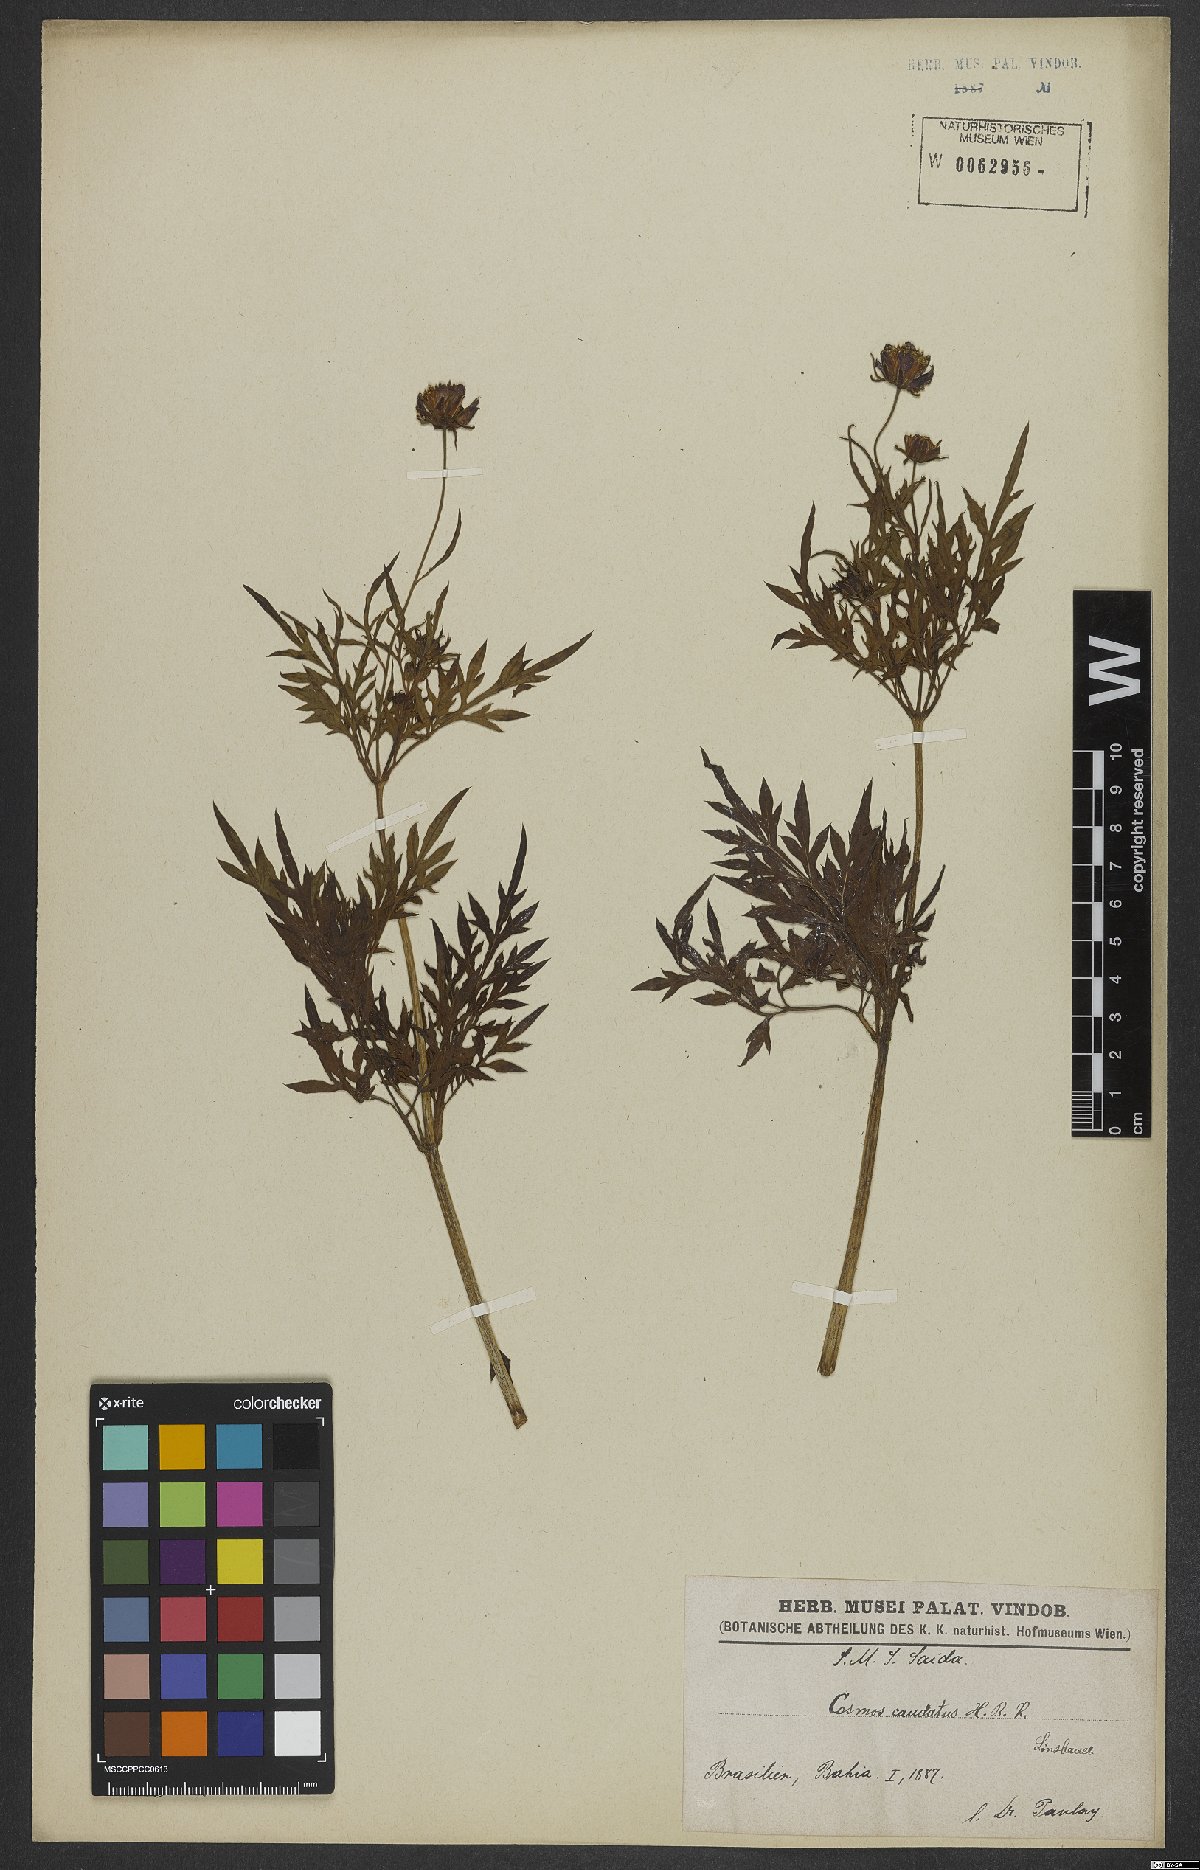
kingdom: Plantae
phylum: Tracheophyta
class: Magnoliopsida
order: Asterales
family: Asteraceae
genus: Cosmos
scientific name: Cosmos caudatus
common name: Wild cosmos
